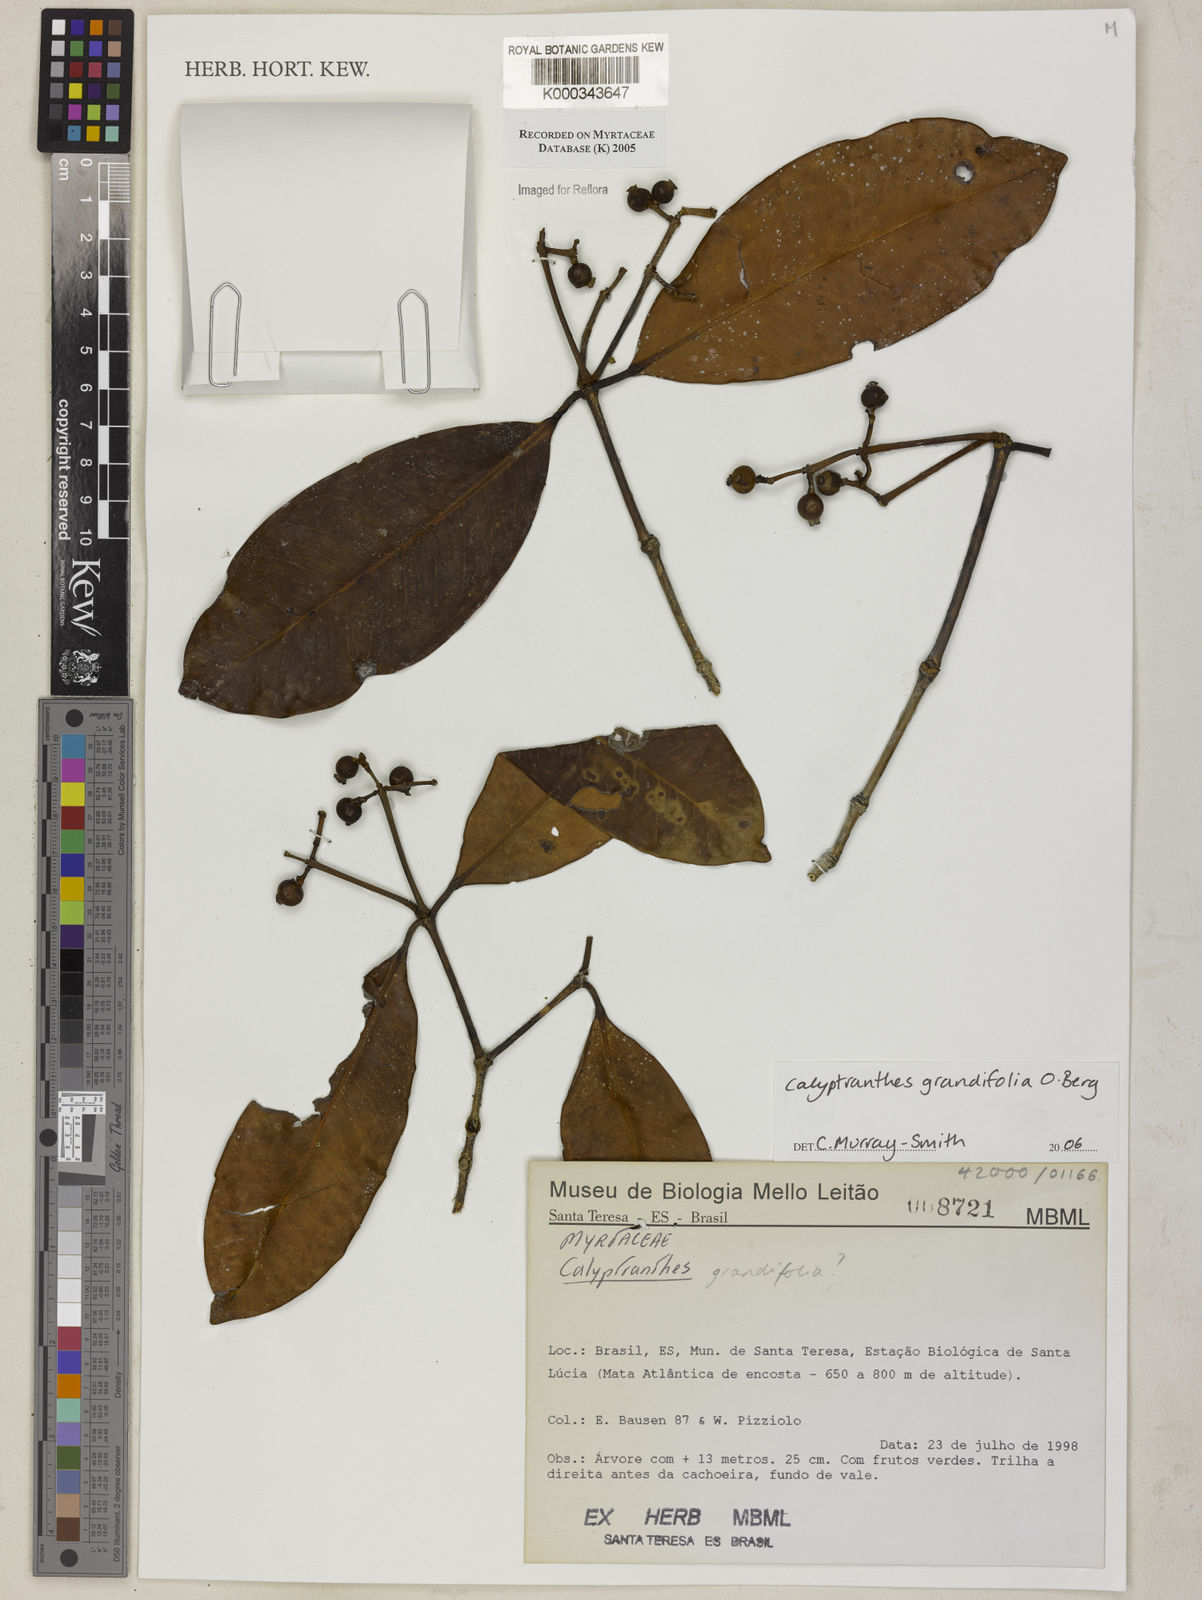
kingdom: Plantae
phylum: Tracheophyta
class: Magnoliopsida
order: Myrtales
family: Myrtaceae
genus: Calyptranthes
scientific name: Calyptranthes grandifolia
